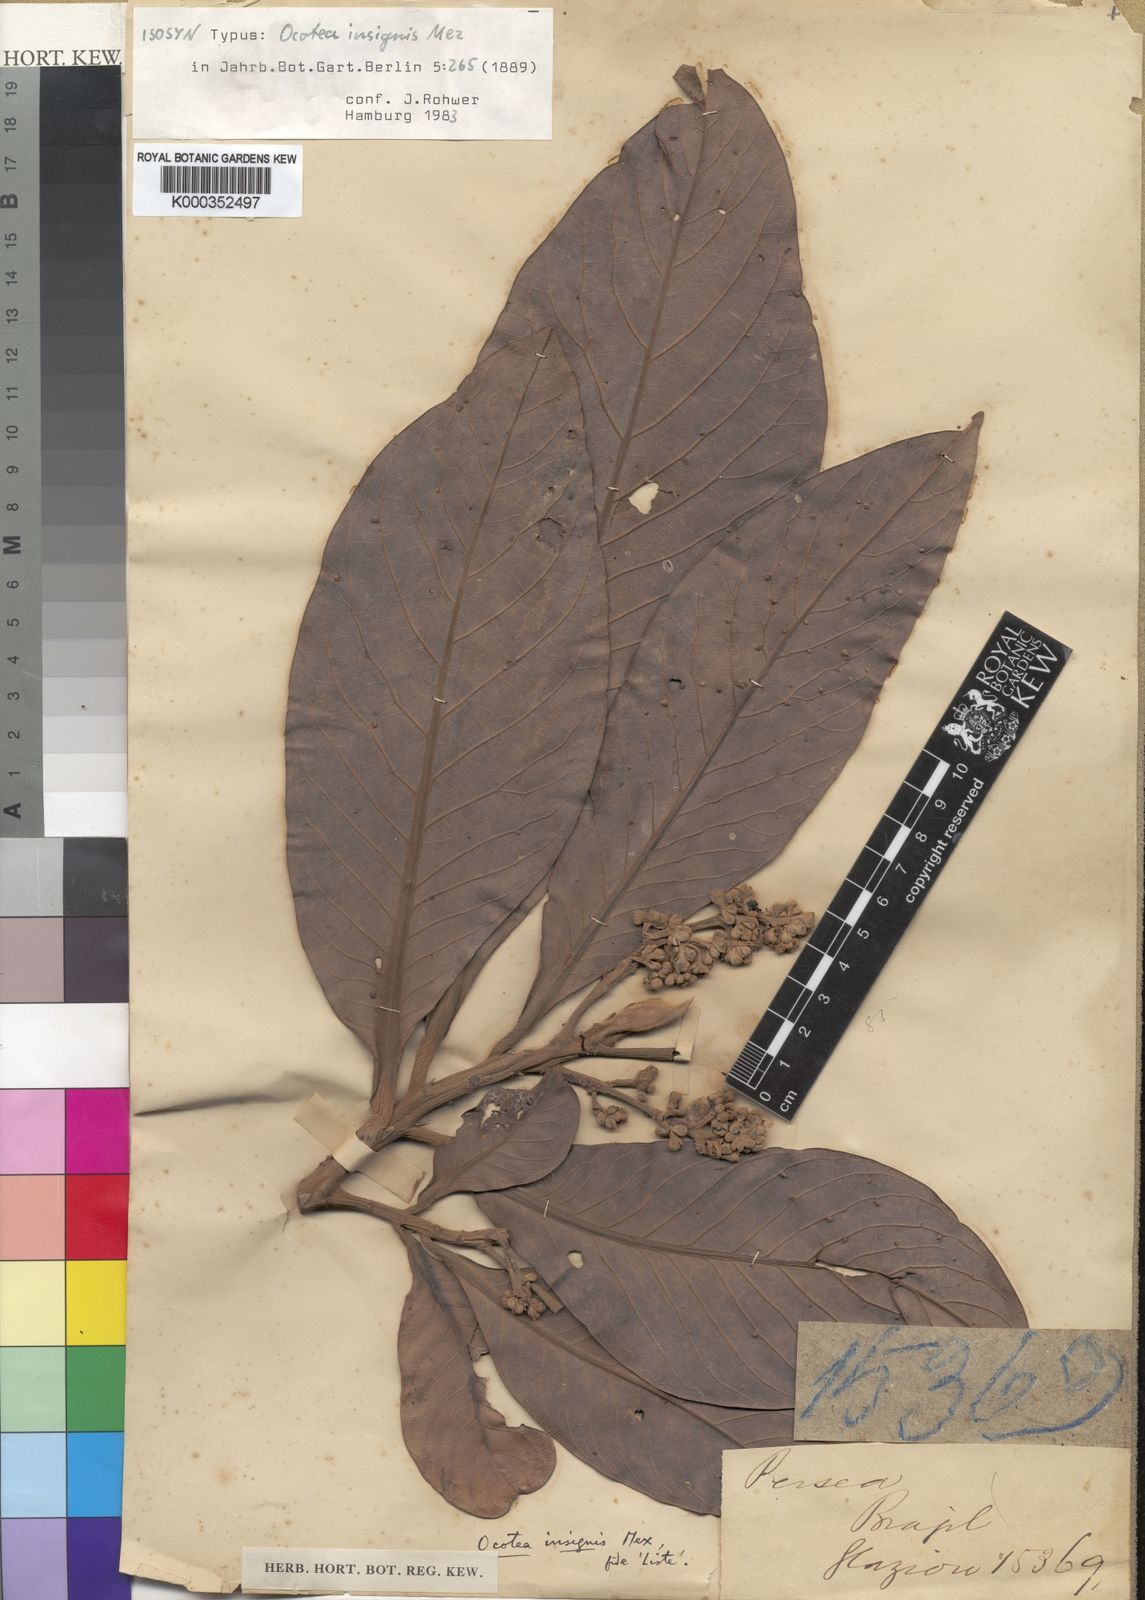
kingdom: Plantae
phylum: Tracheophyta
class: Magnoliopsida
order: Laurales
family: Lauraceae
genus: Ocotea
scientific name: Ocotea insignis
